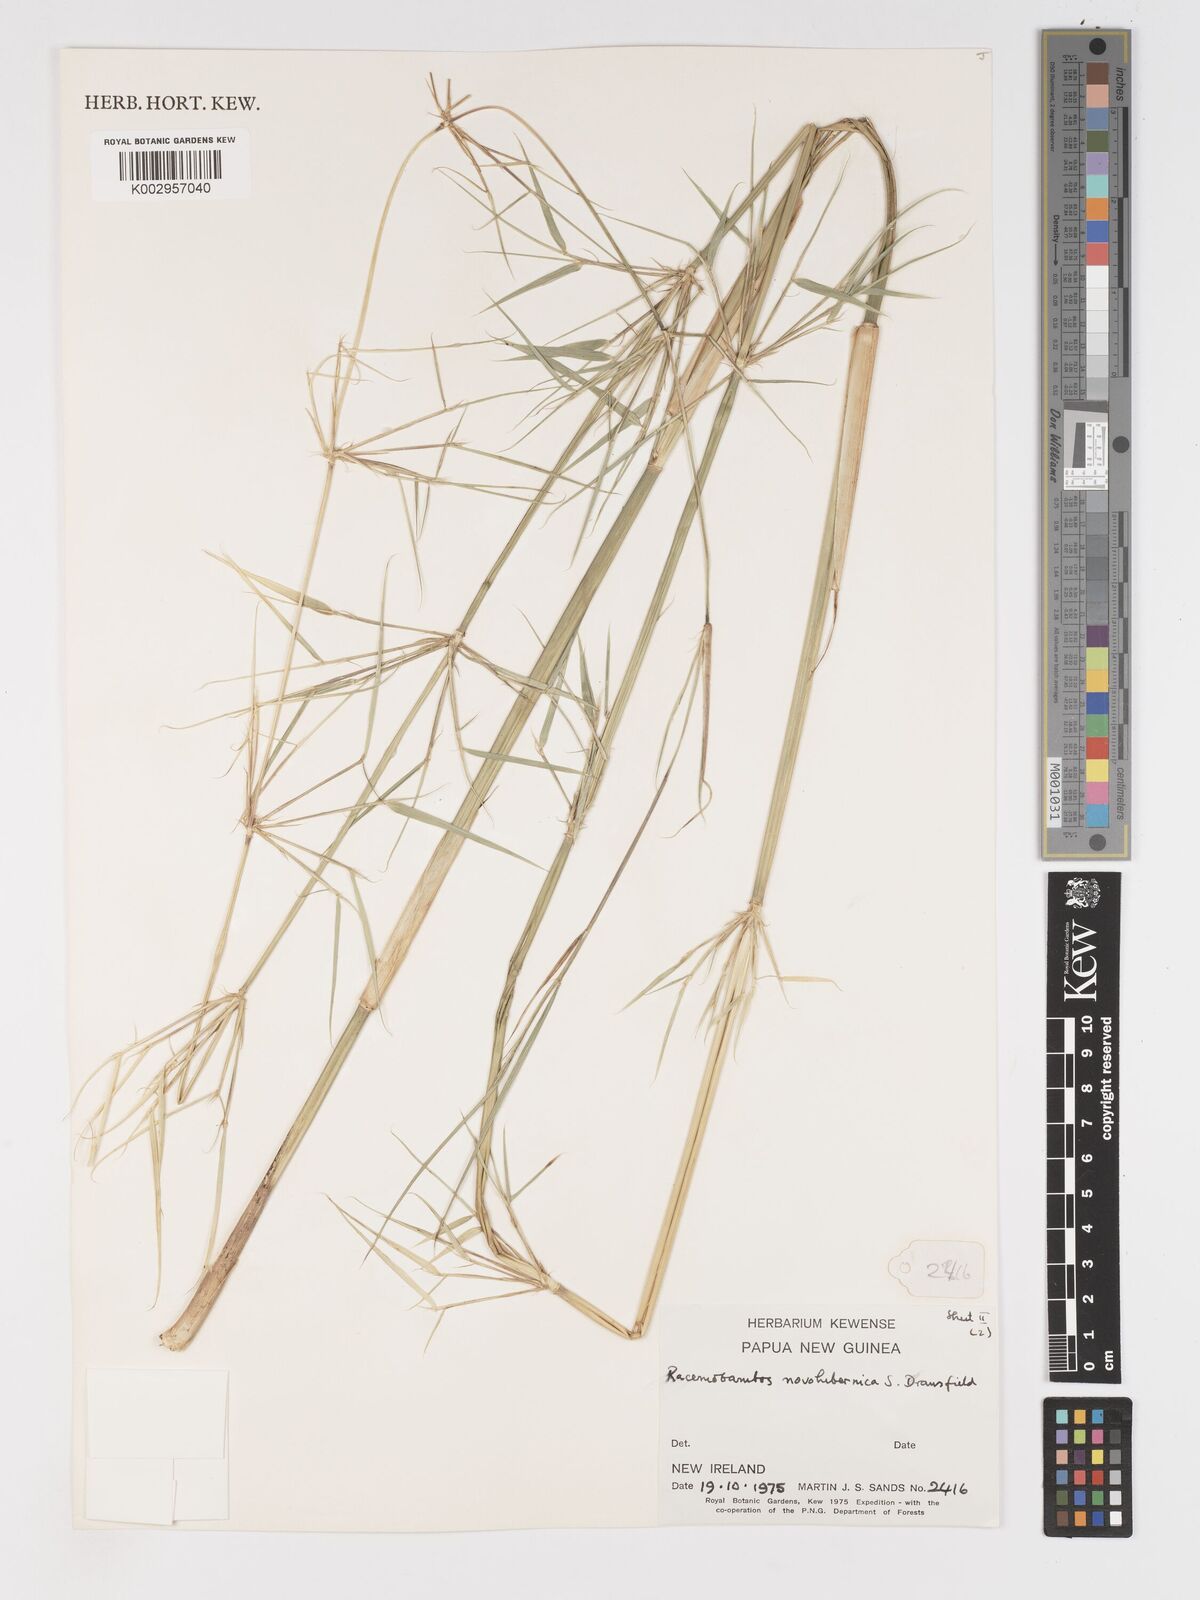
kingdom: Plantae
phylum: Tracheophyta
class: Liliopsida
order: Poales
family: Poaceae
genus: Racemobambos
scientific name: Racemobambos novohibernica
